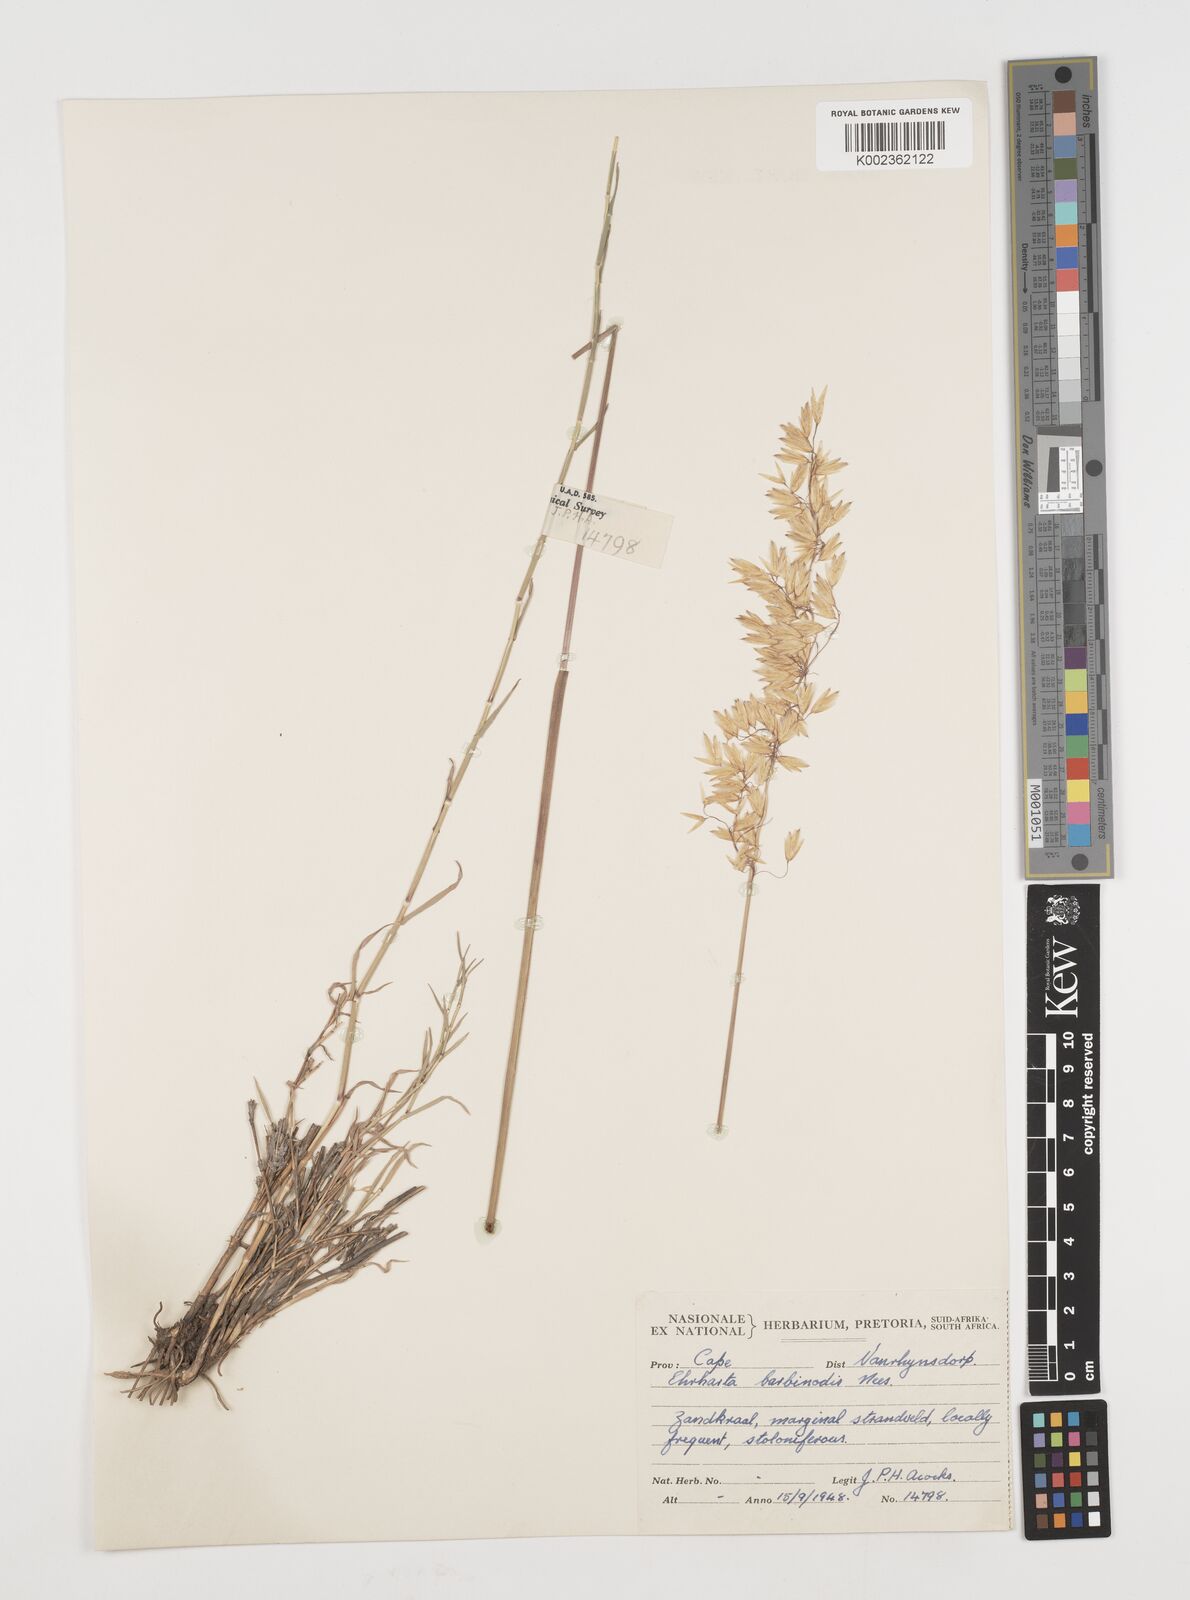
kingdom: Plantae
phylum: Tracheophyta
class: Liliopsida
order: Poales
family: Poaceae
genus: Ehrharta
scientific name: Ehrharta barbinodis
